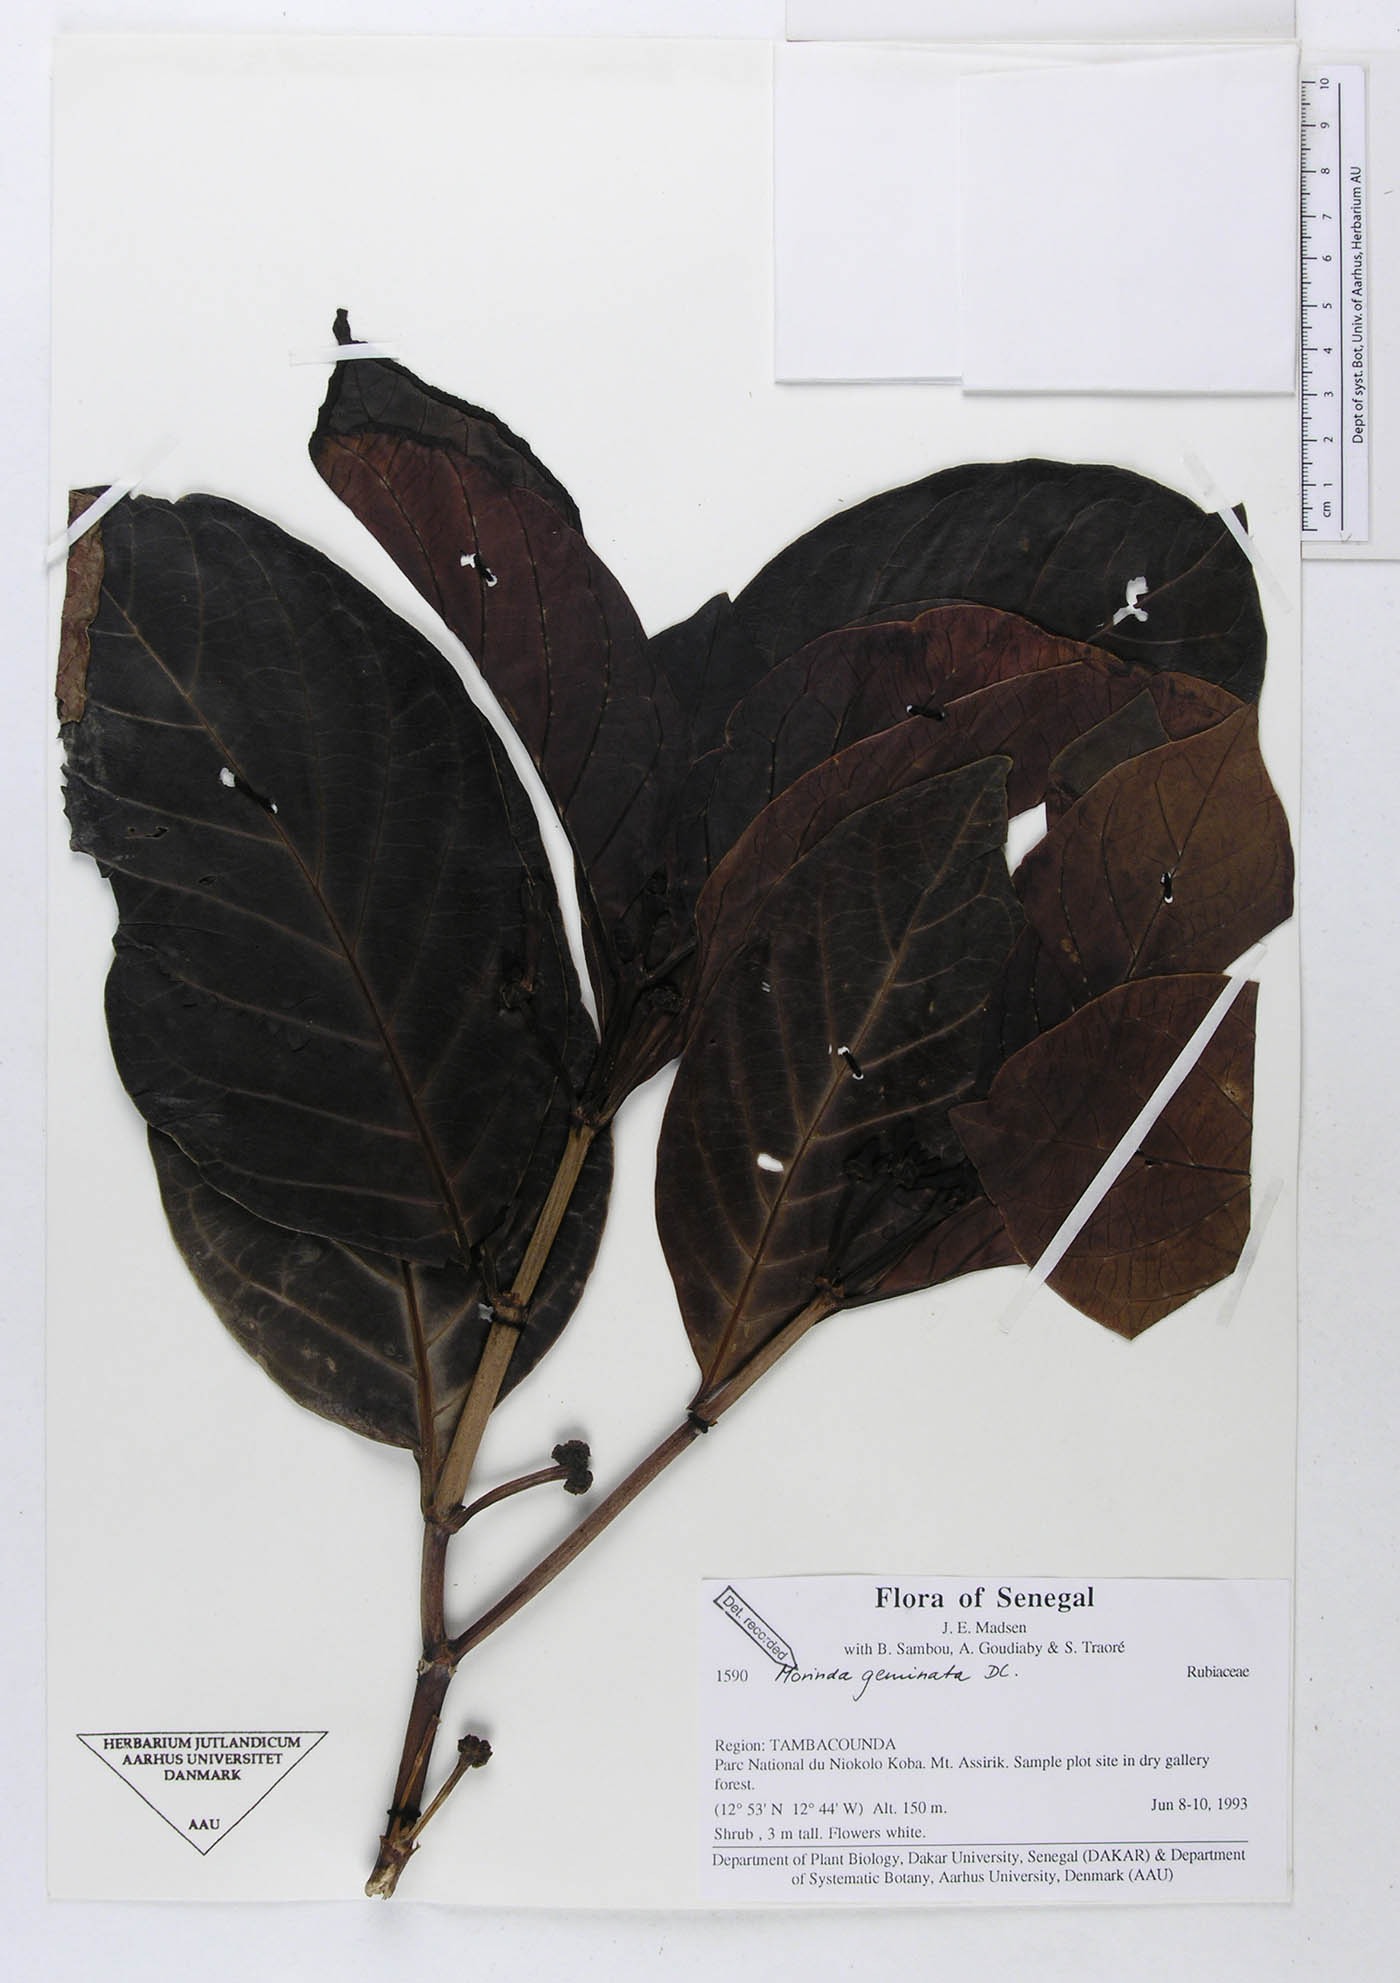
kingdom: Plantae
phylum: Tracheophyta
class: Magnoliopsida
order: Gentianales
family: Rubiaceae
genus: Morinda
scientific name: Morinda chrysorhiza
